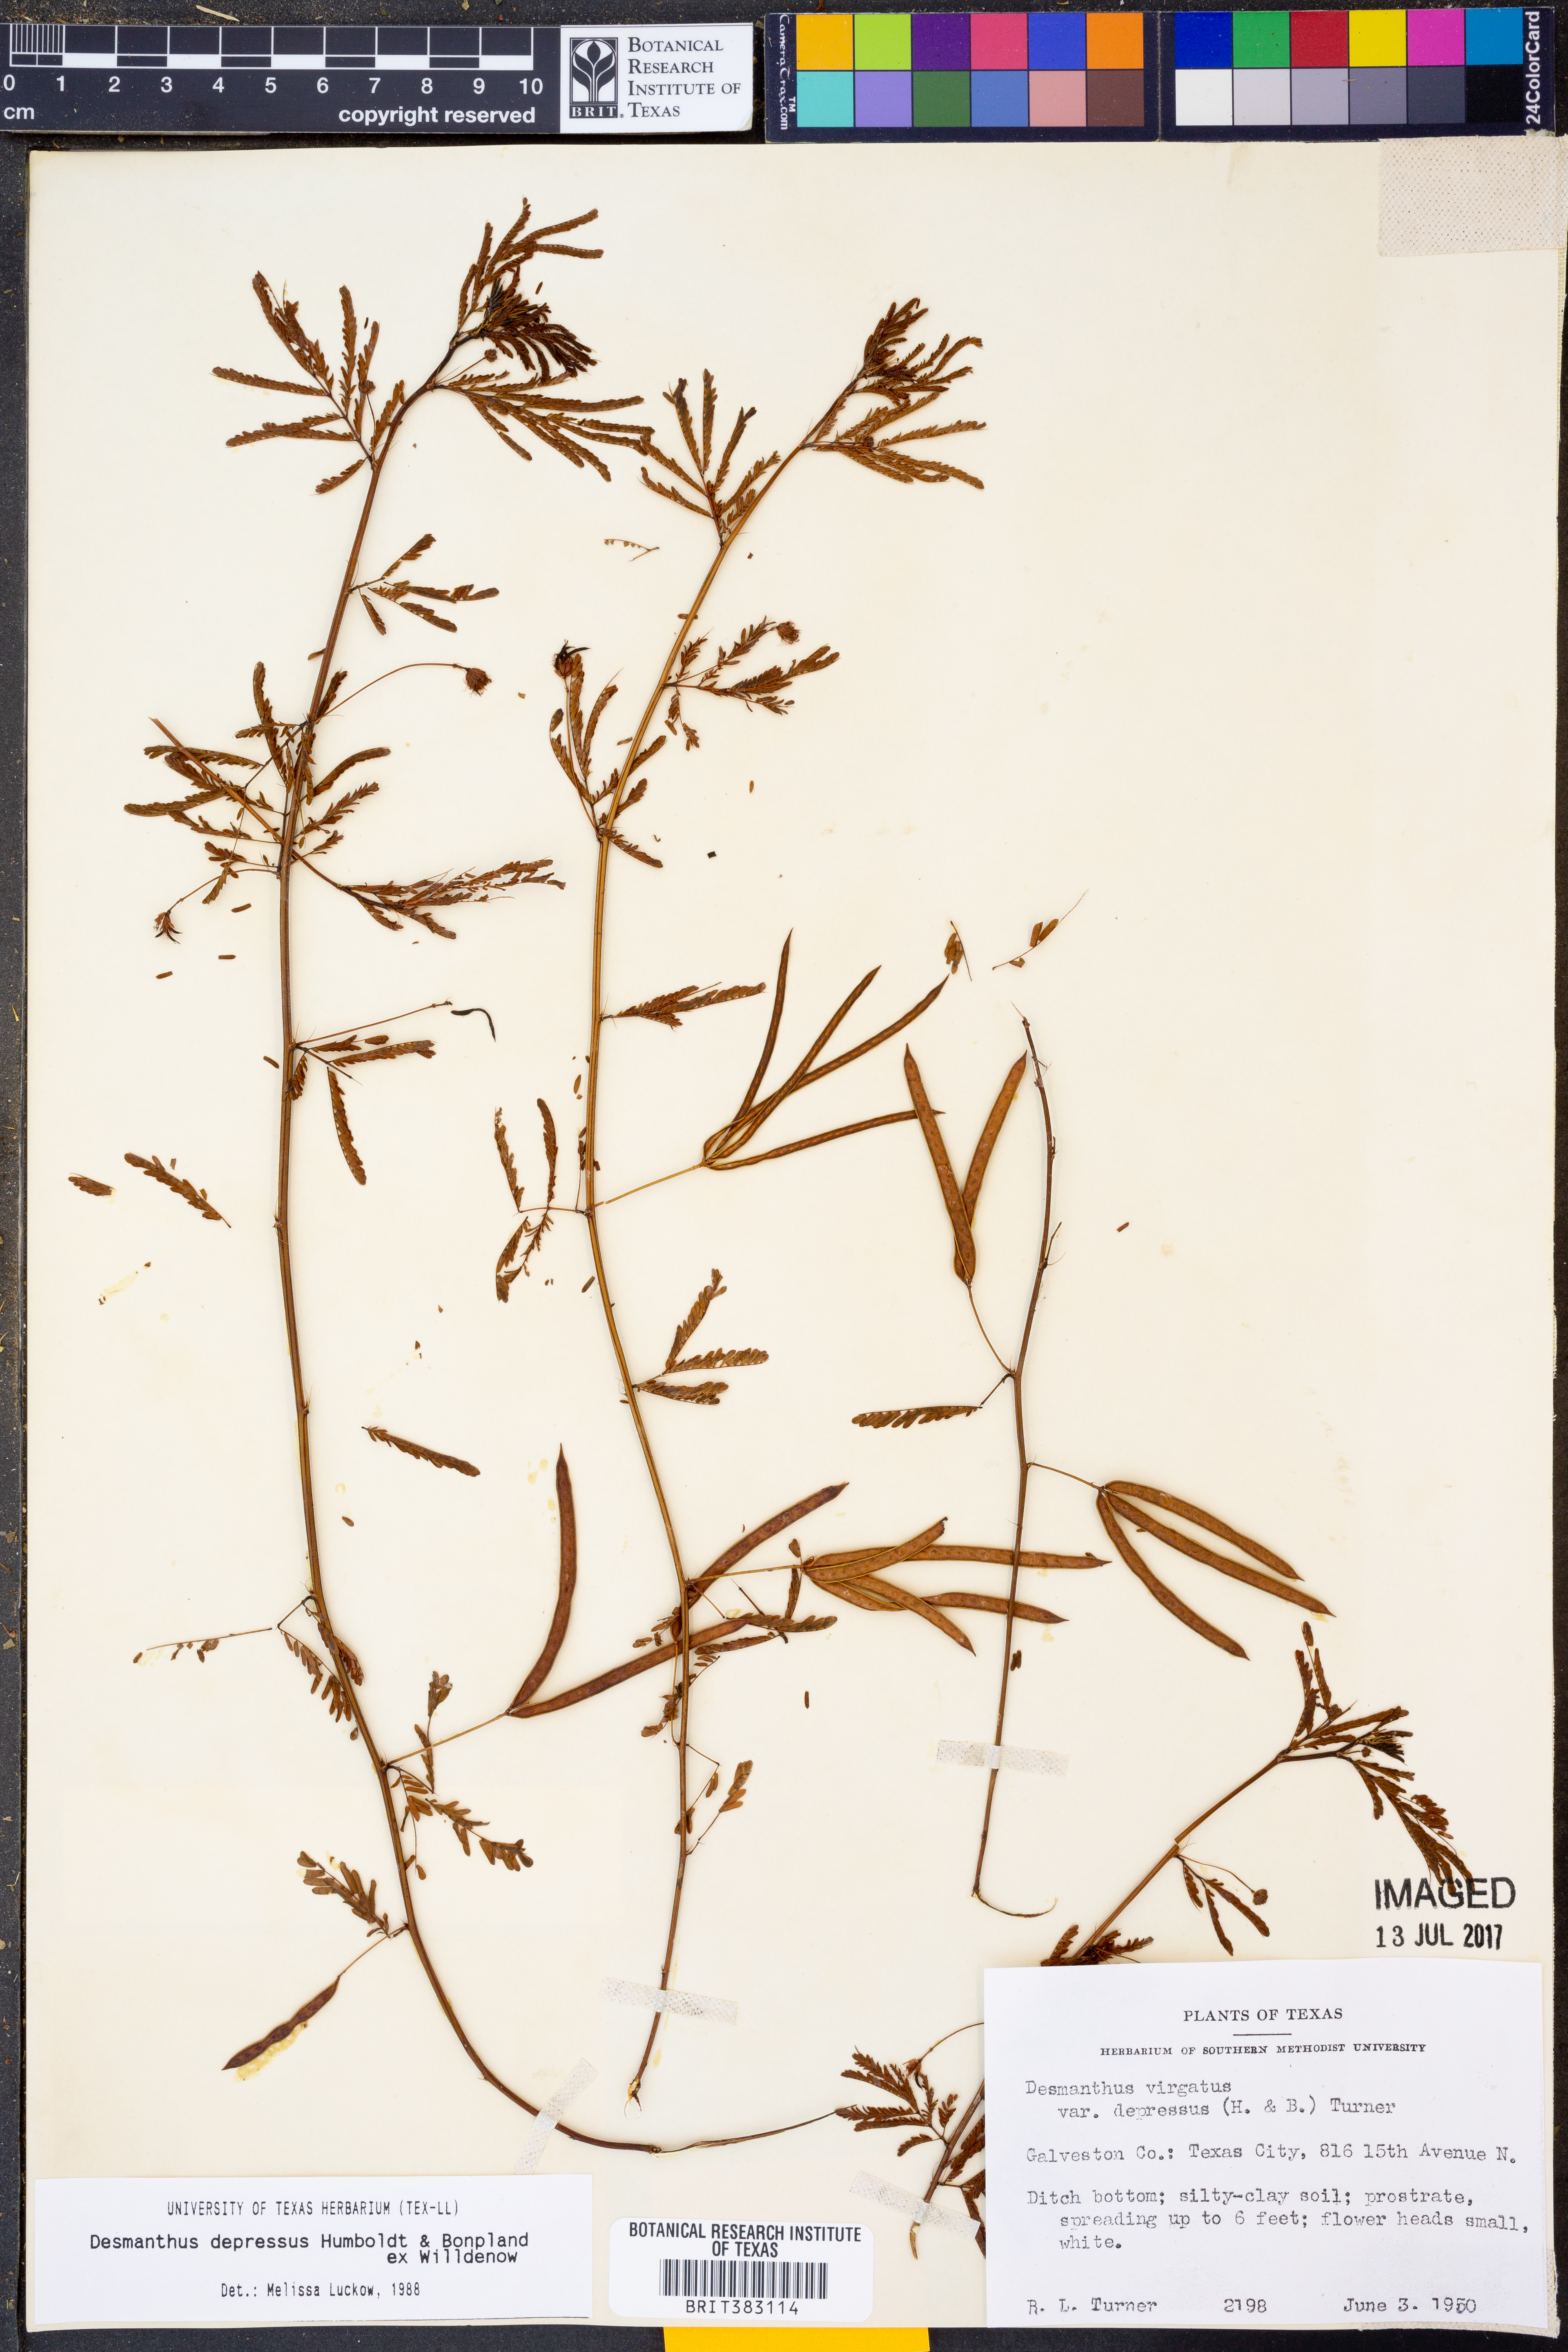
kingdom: Plantae
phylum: Tracheophyta
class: Magnoliopsida
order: Fabales
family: Fabaceae
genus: Desmanthus
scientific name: Desmanthus virgatus
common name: Wild tantan
